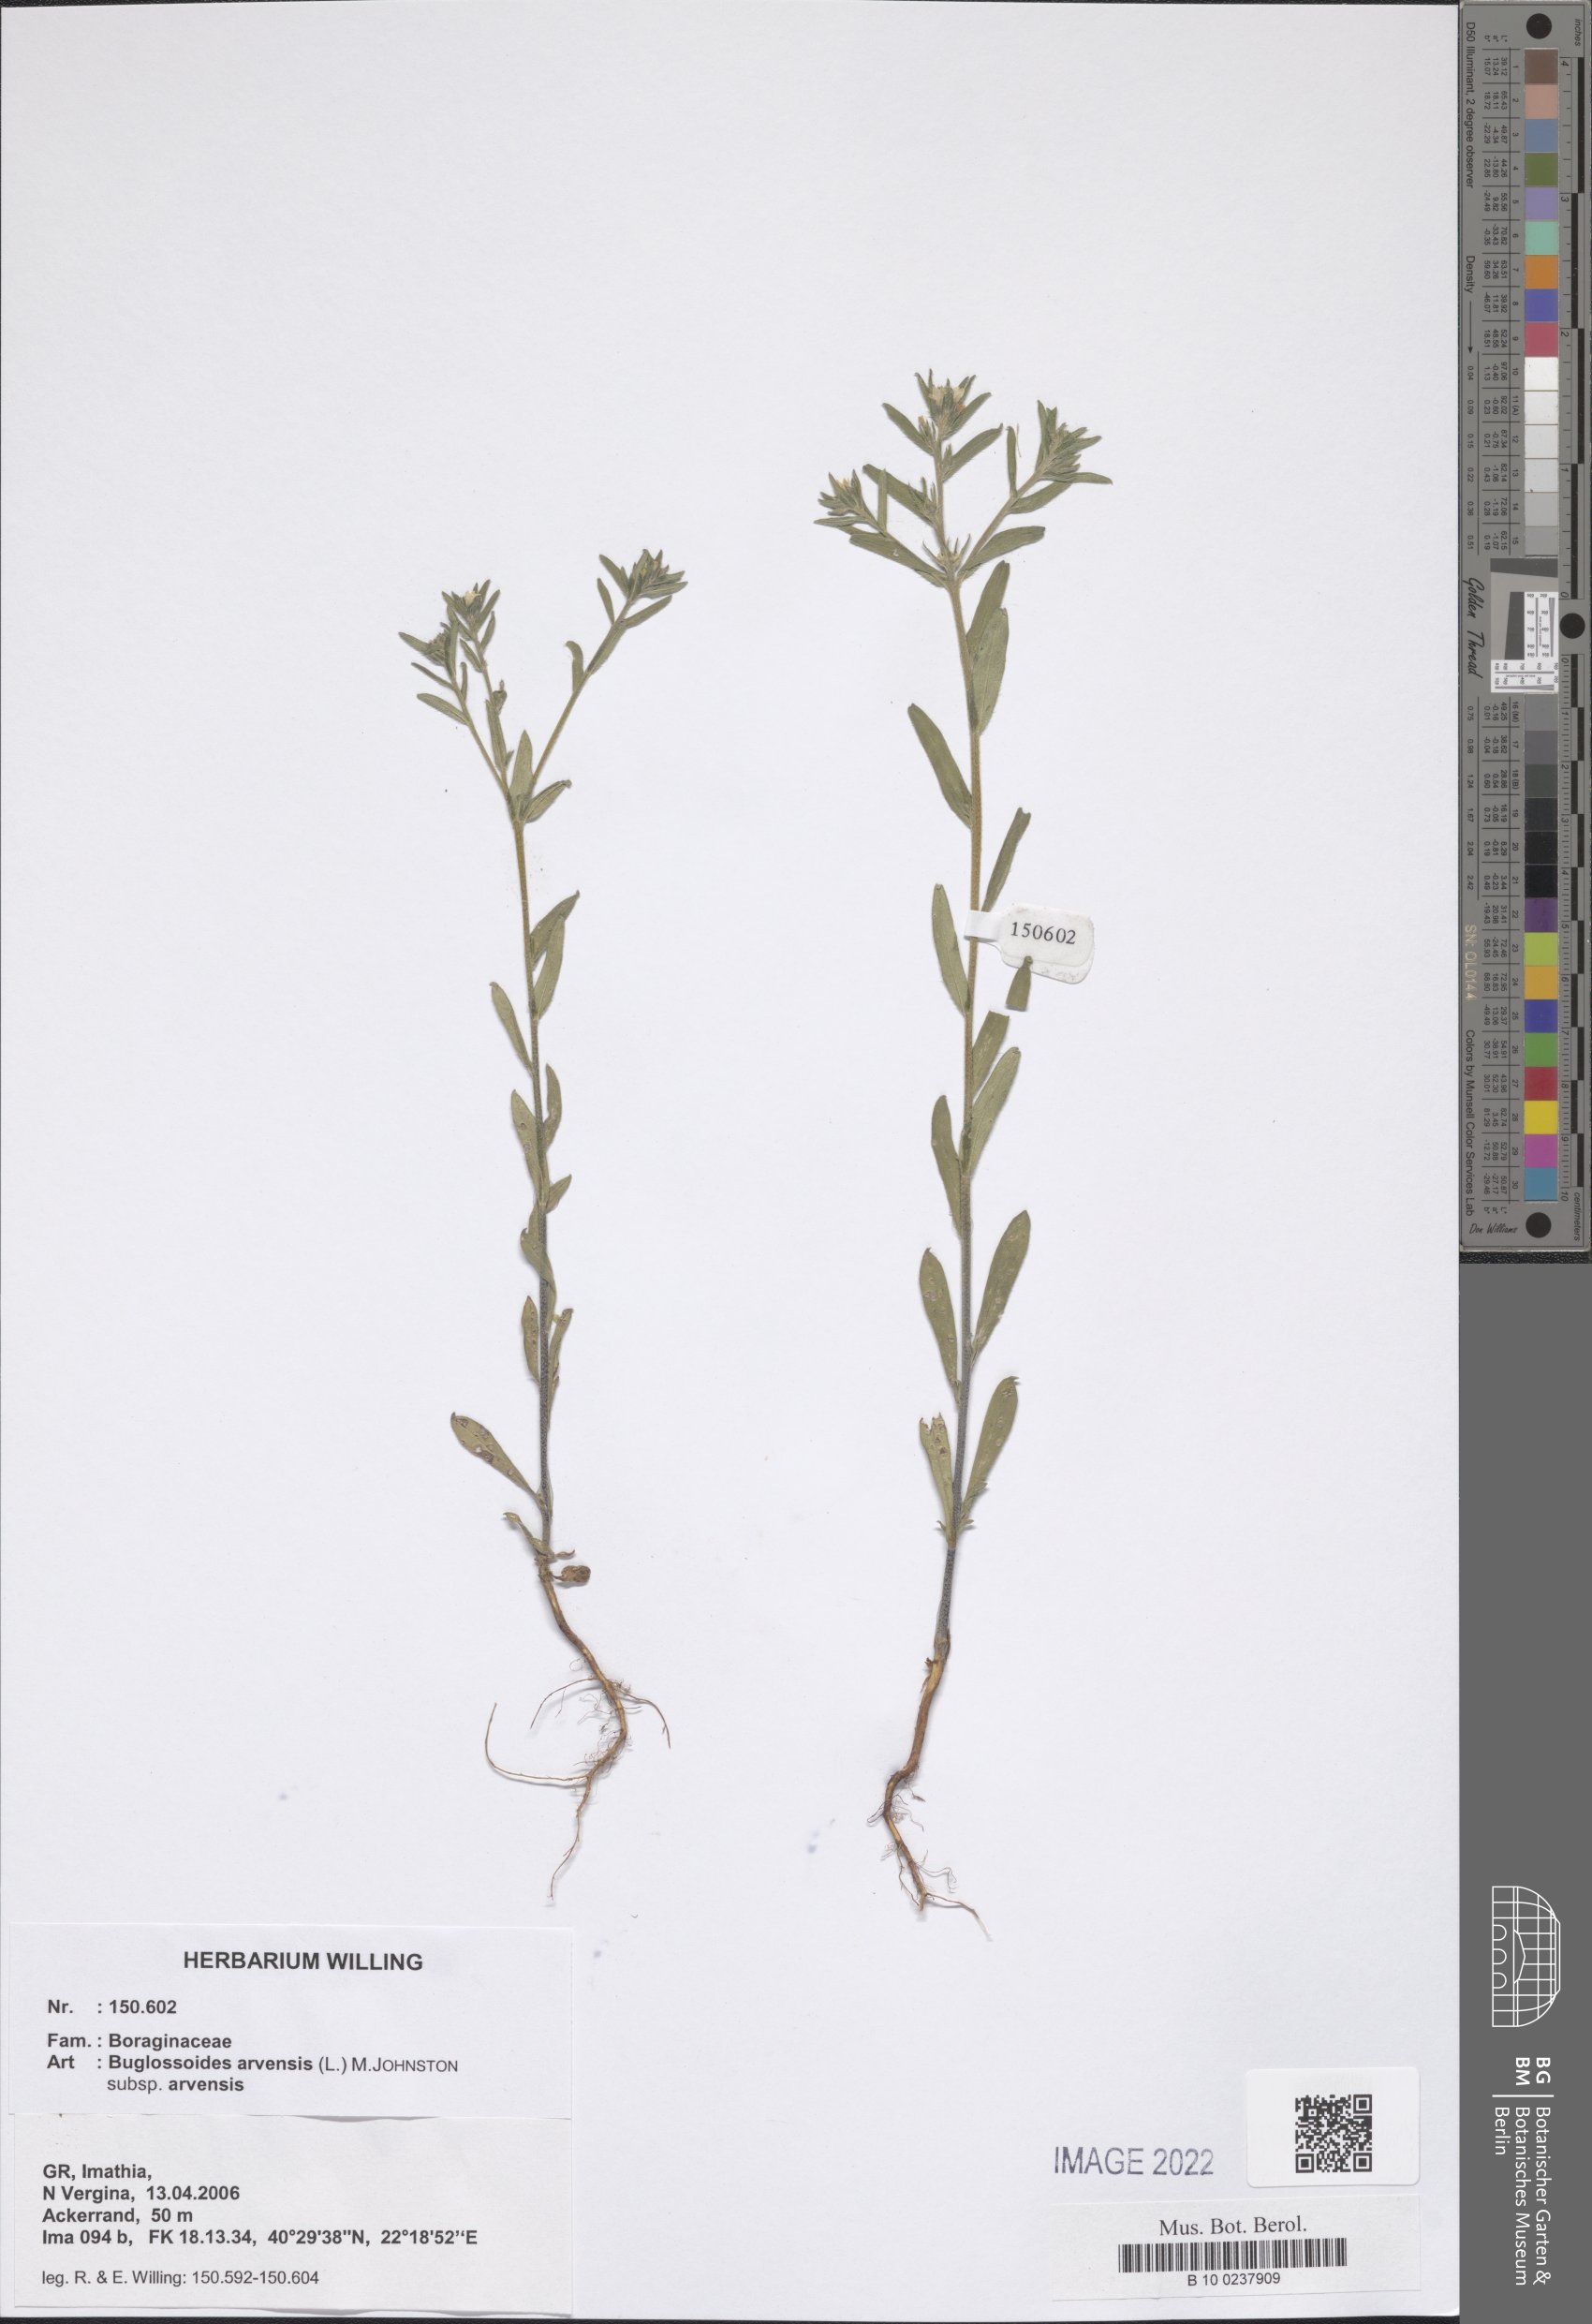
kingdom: Plantae
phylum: Tracheophyta
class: Magnoliopsida
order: Boraginales
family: Boraginaceae
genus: Buglossoides
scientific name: Buglossoides arvensis
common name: Corn gromwell
